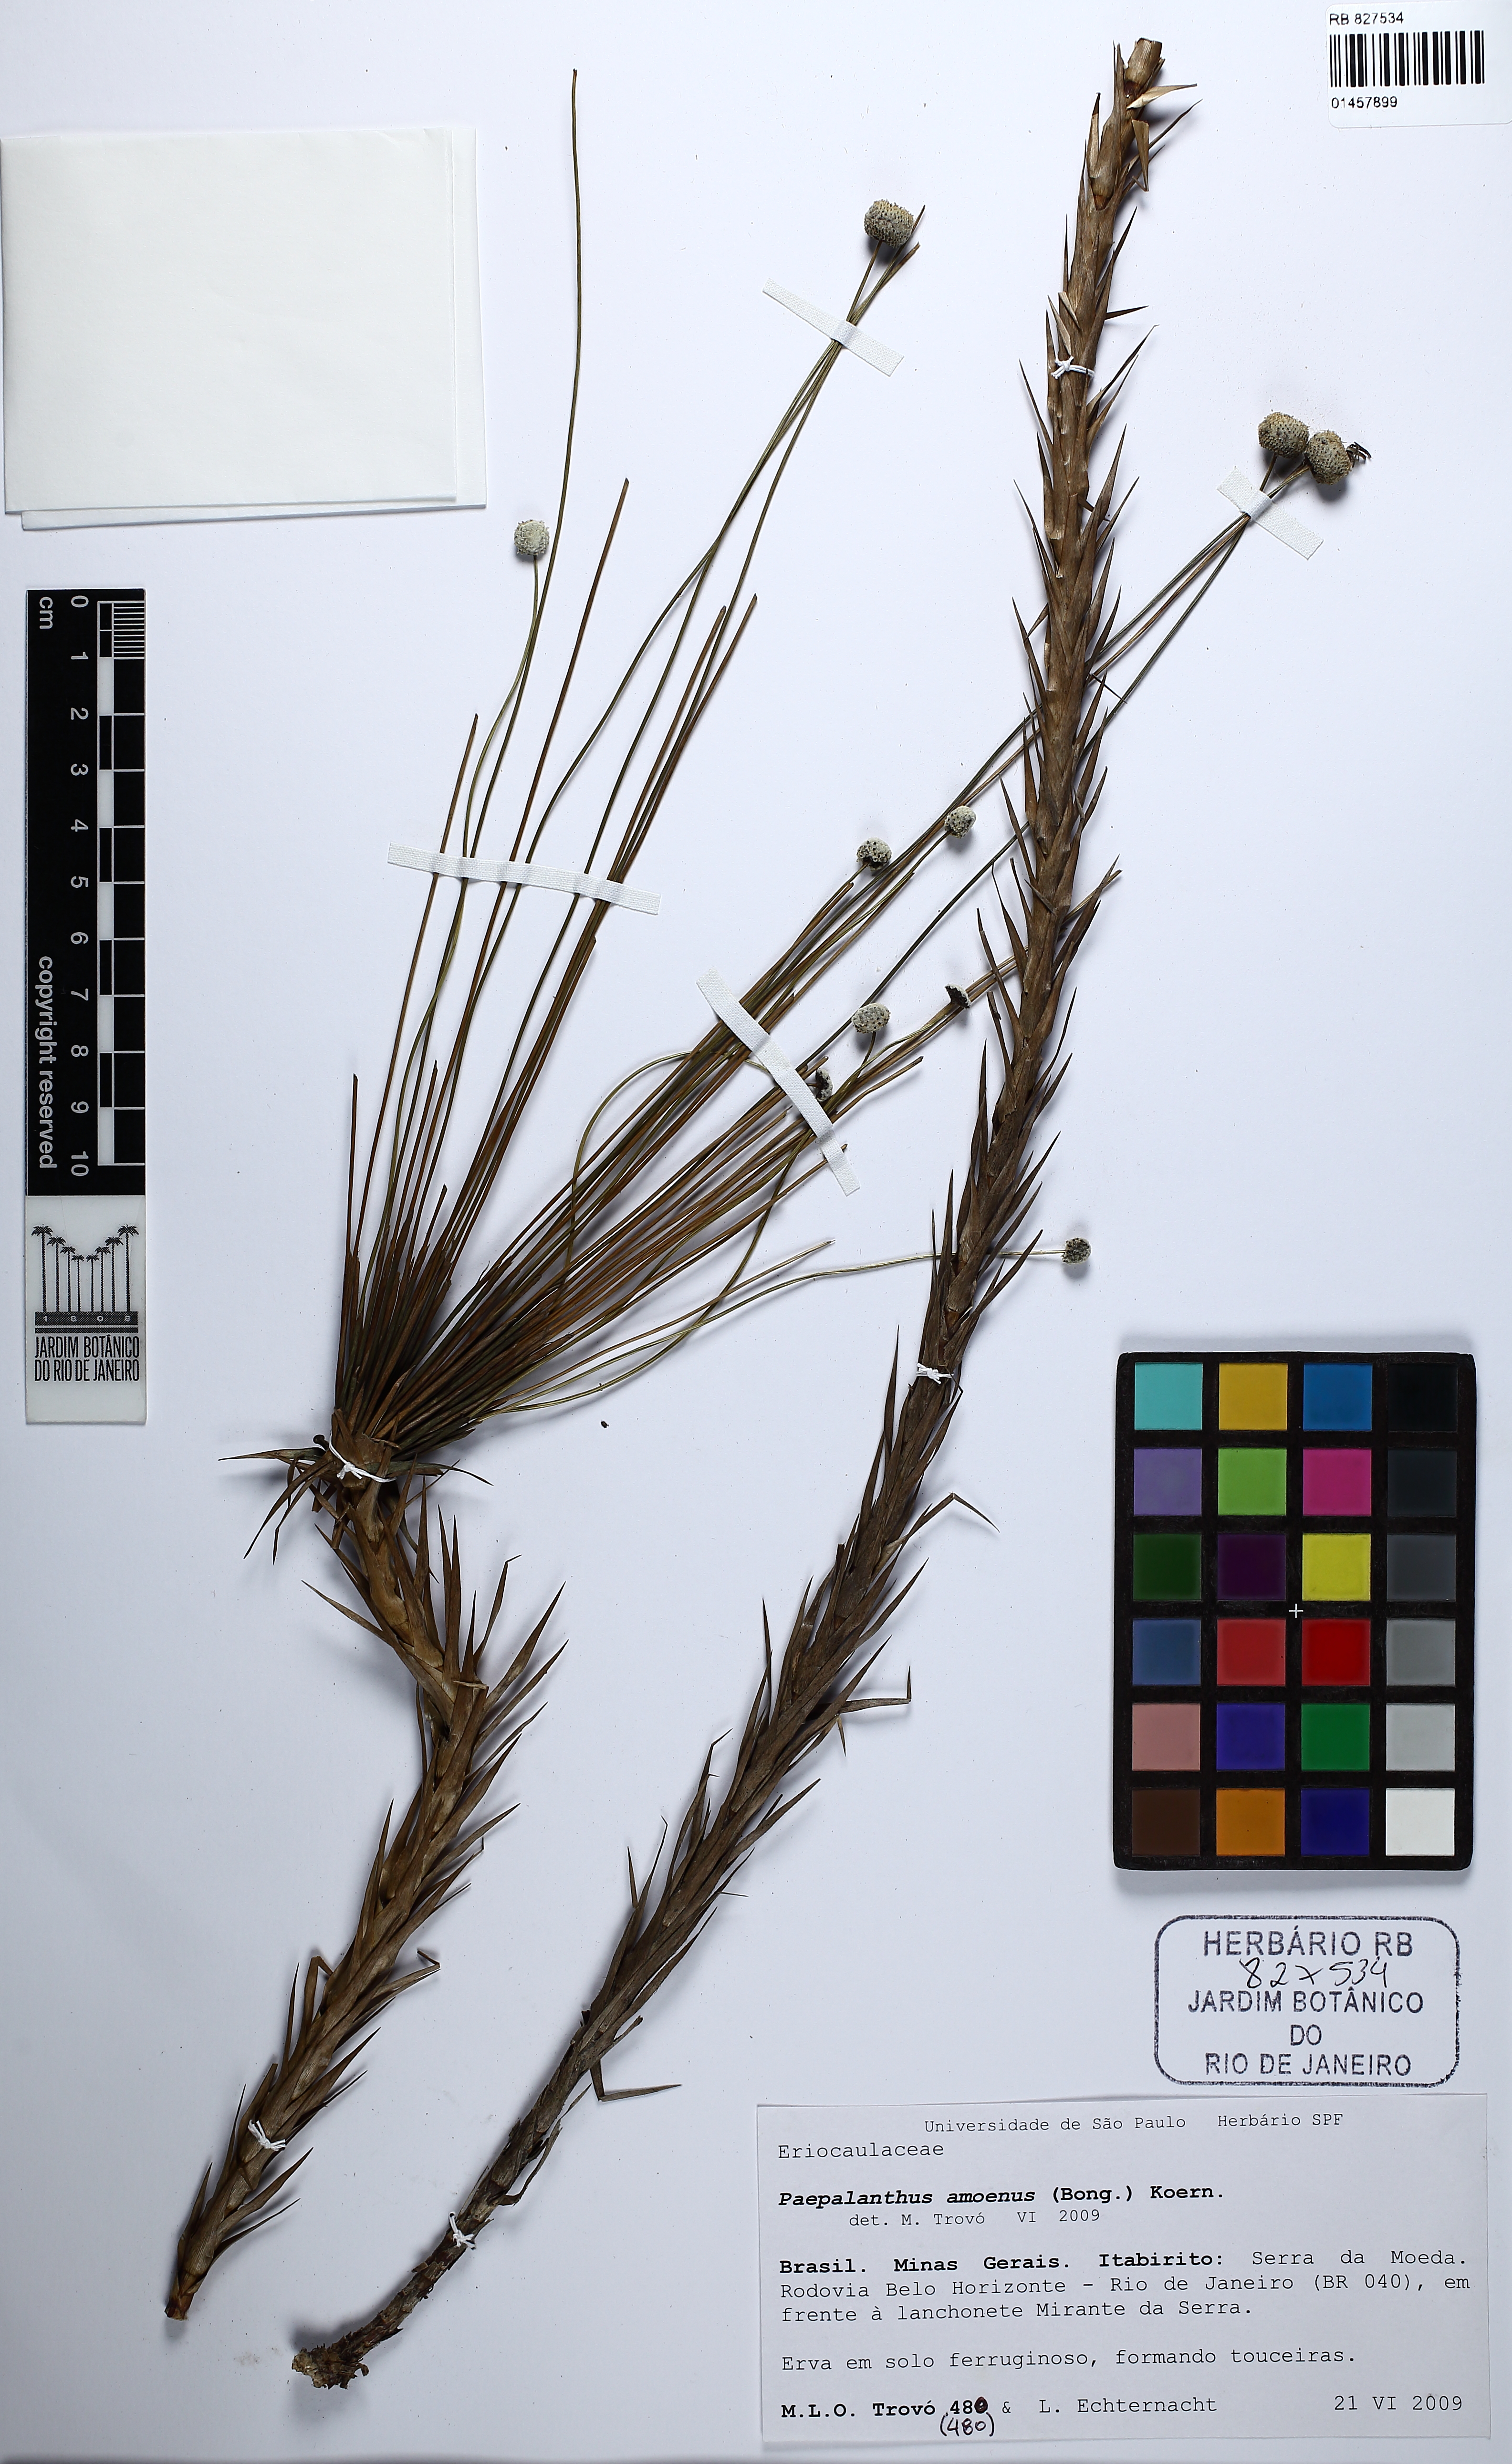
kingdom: Plantae
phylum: Tracheophyta
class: Liliopsida
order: Poales
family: Eriocaulaceae
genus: Paepalanthus
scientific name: Paepalanthus amoenus
